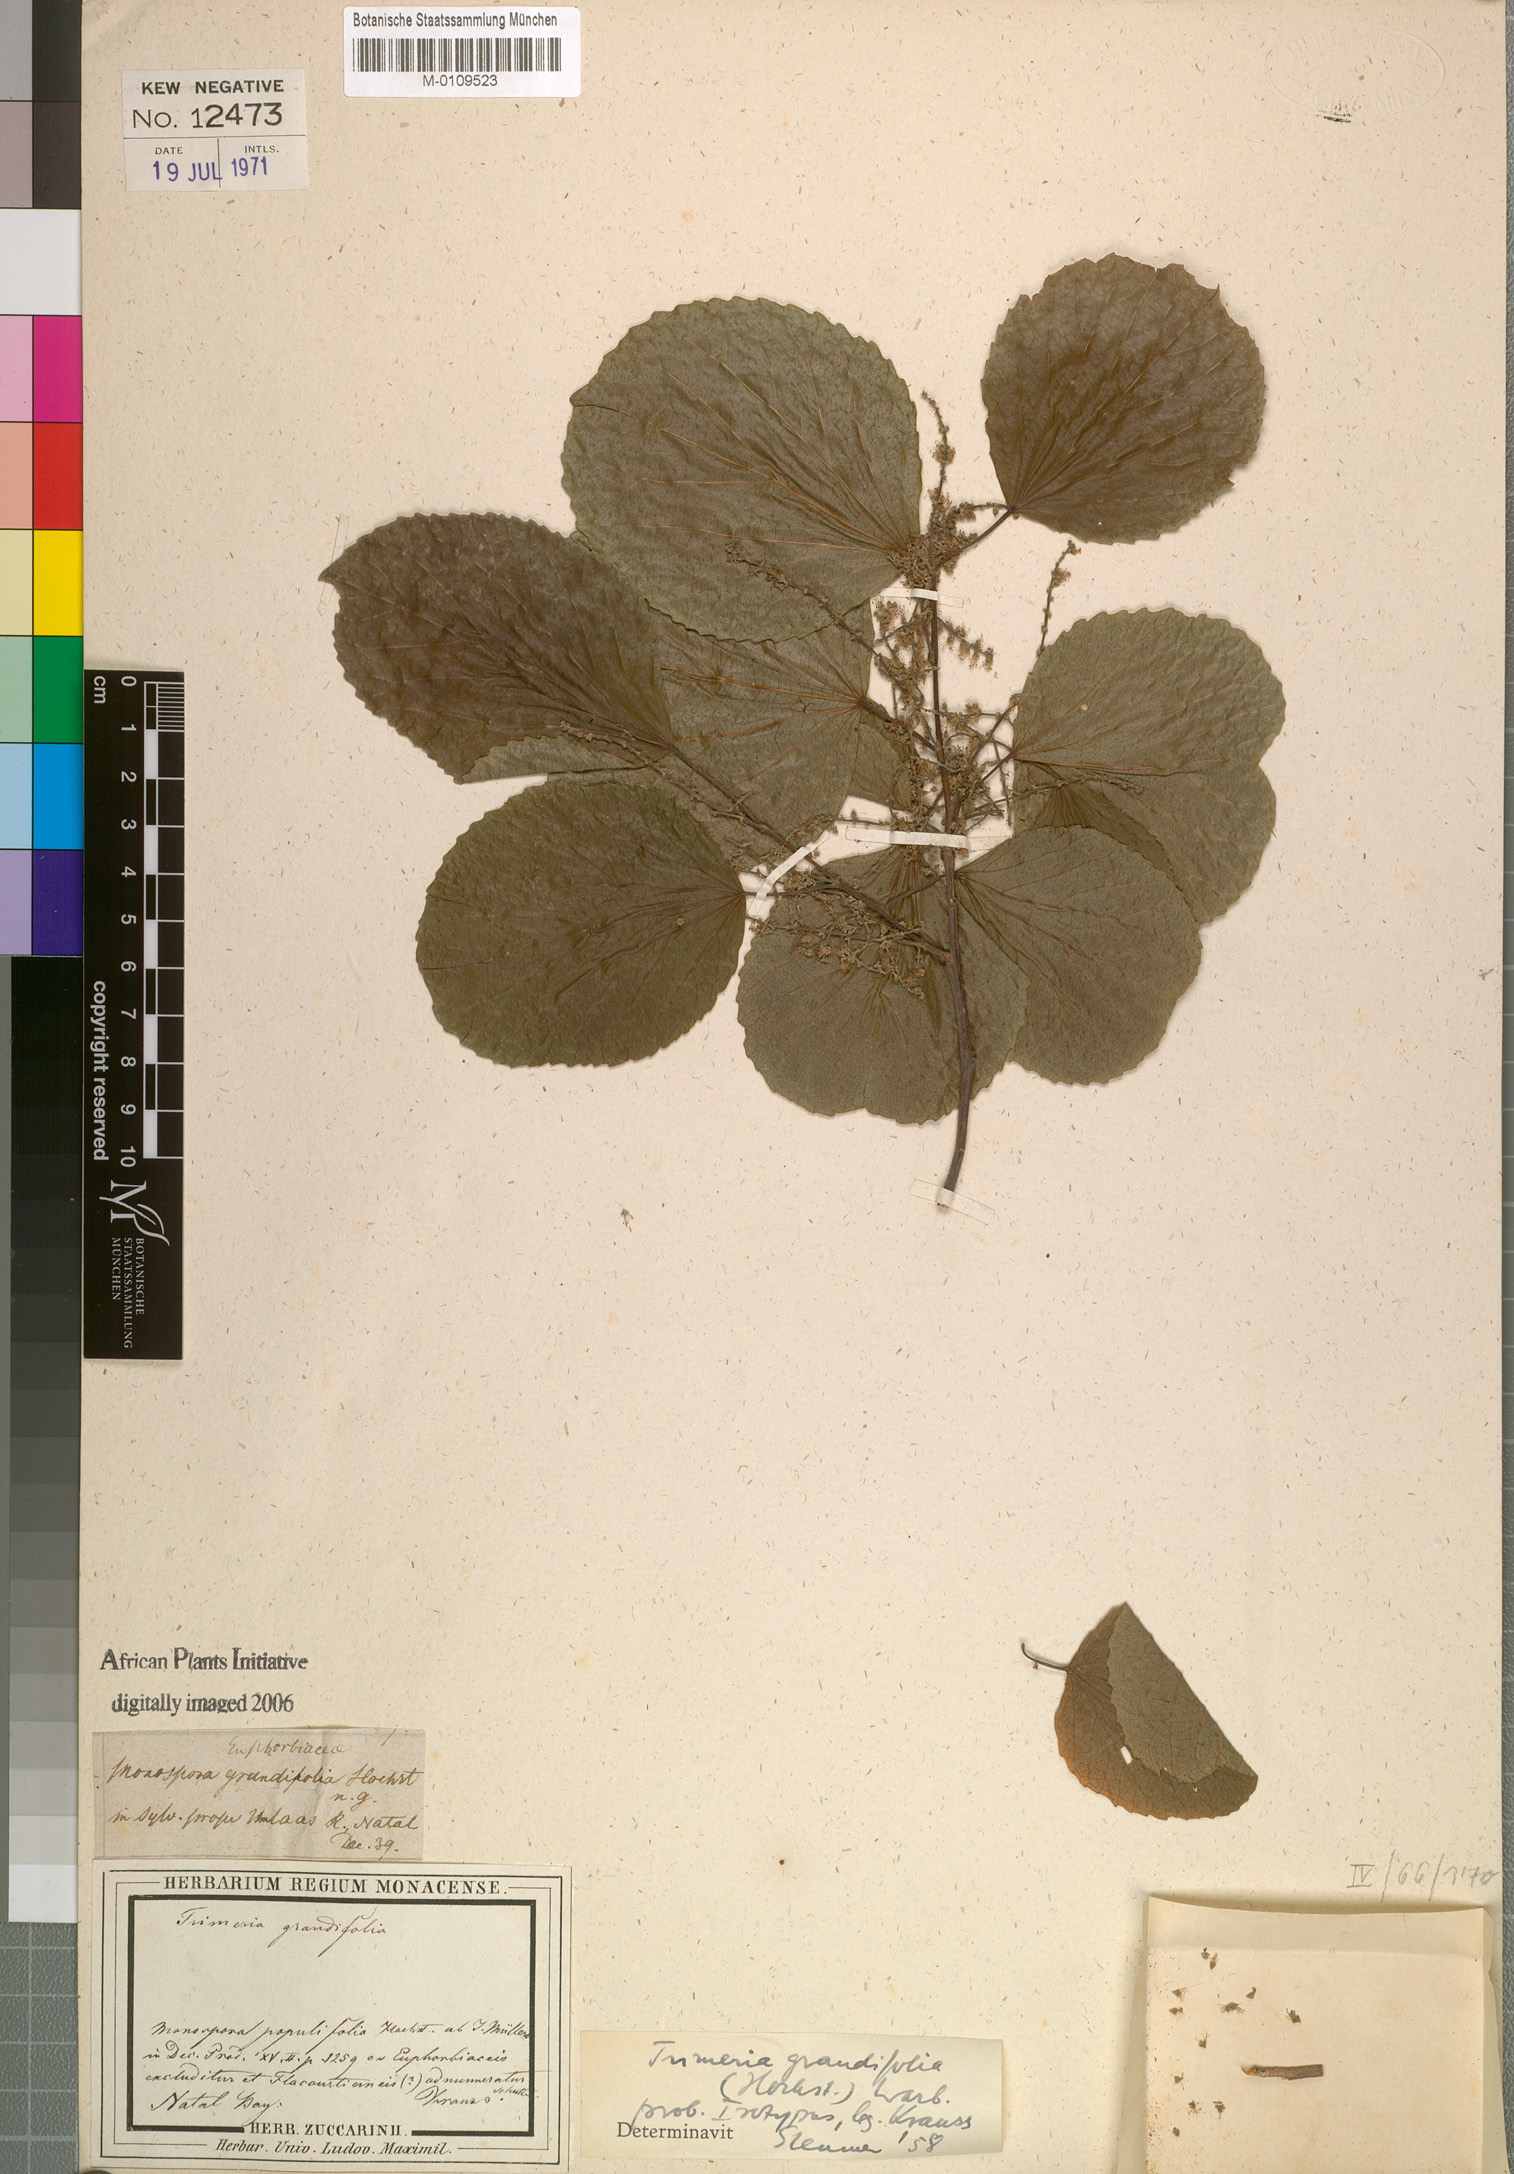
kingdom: Plantae
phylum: Tracheophyta
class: Magnoliopsida
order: Malpighiales
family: Salicaceae
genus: Trimeria
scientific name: Trimeria grandifolia
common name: Wild mulberry
